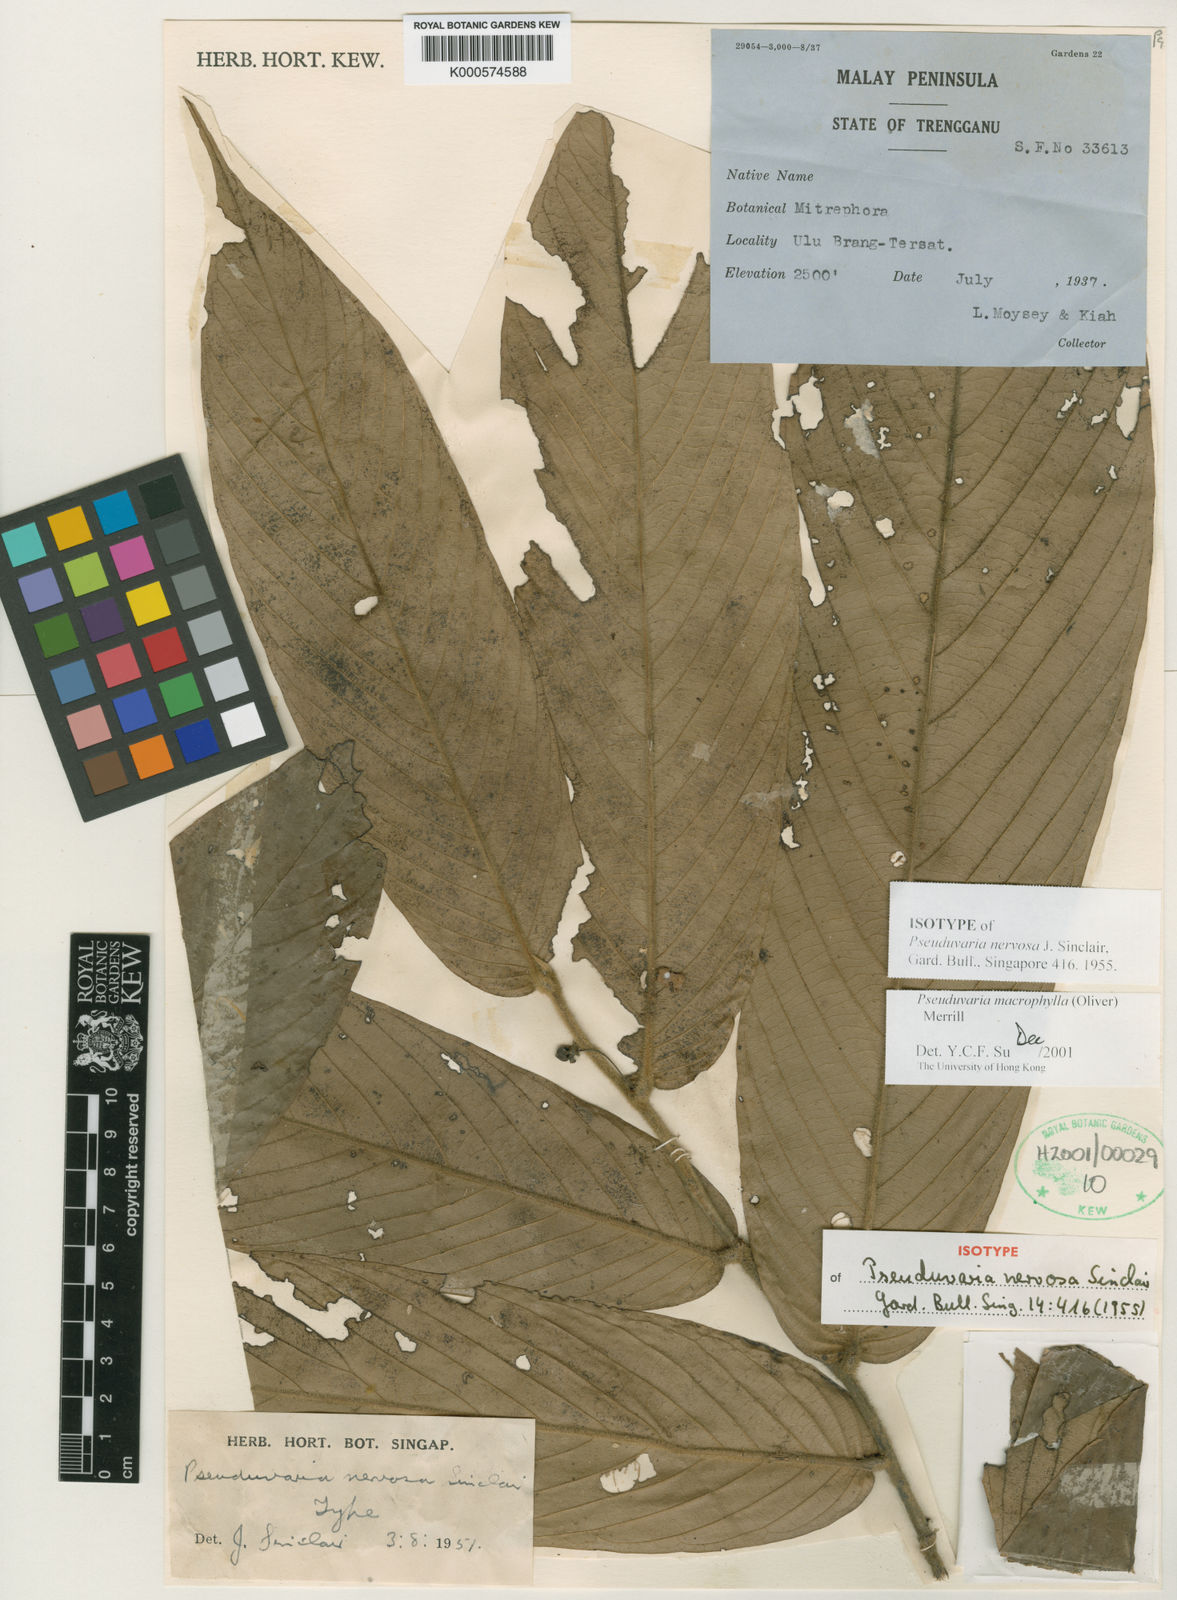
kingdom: Plantae
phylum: Tracheophyta
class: Magnoliopsida
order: Magnoliales
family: Annonaceae
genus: Pseuduvaria
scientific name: Pseuduvaria macrophylla
